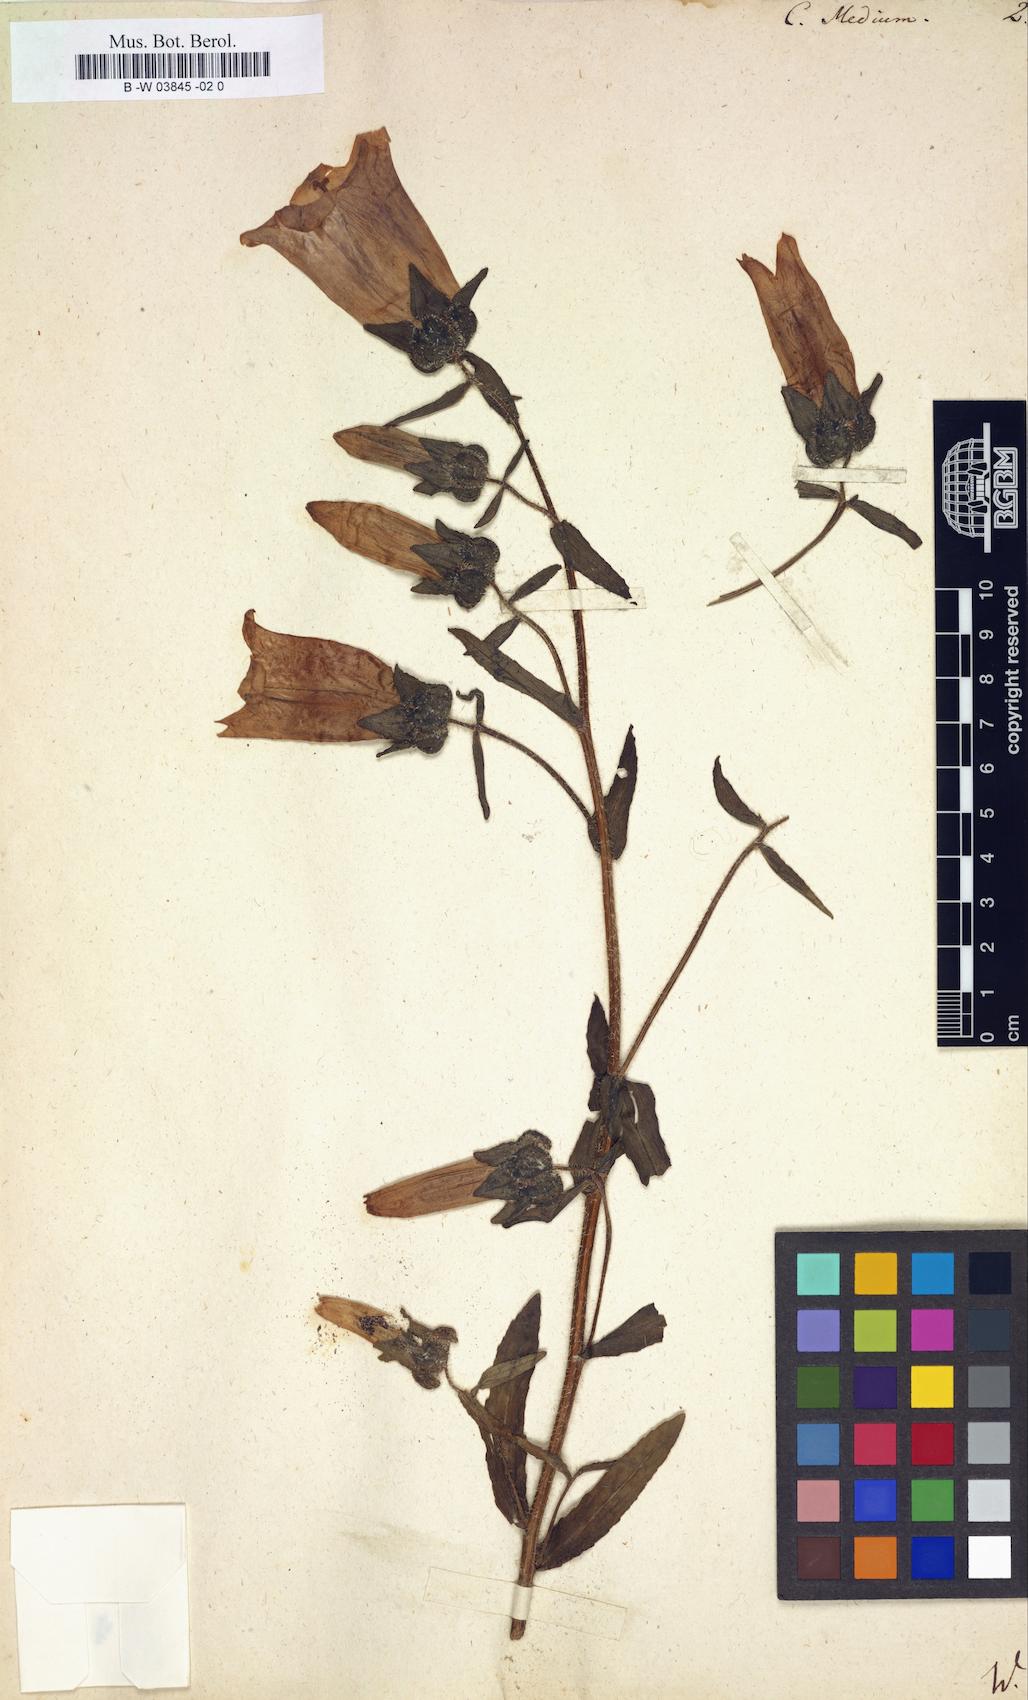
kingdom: Plantae
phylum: Tracheophyta
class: Magnoliopsida
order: Asterales
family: Campanulaceae
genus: Campanula
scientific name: Campanula medium
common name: Canterbury bells
